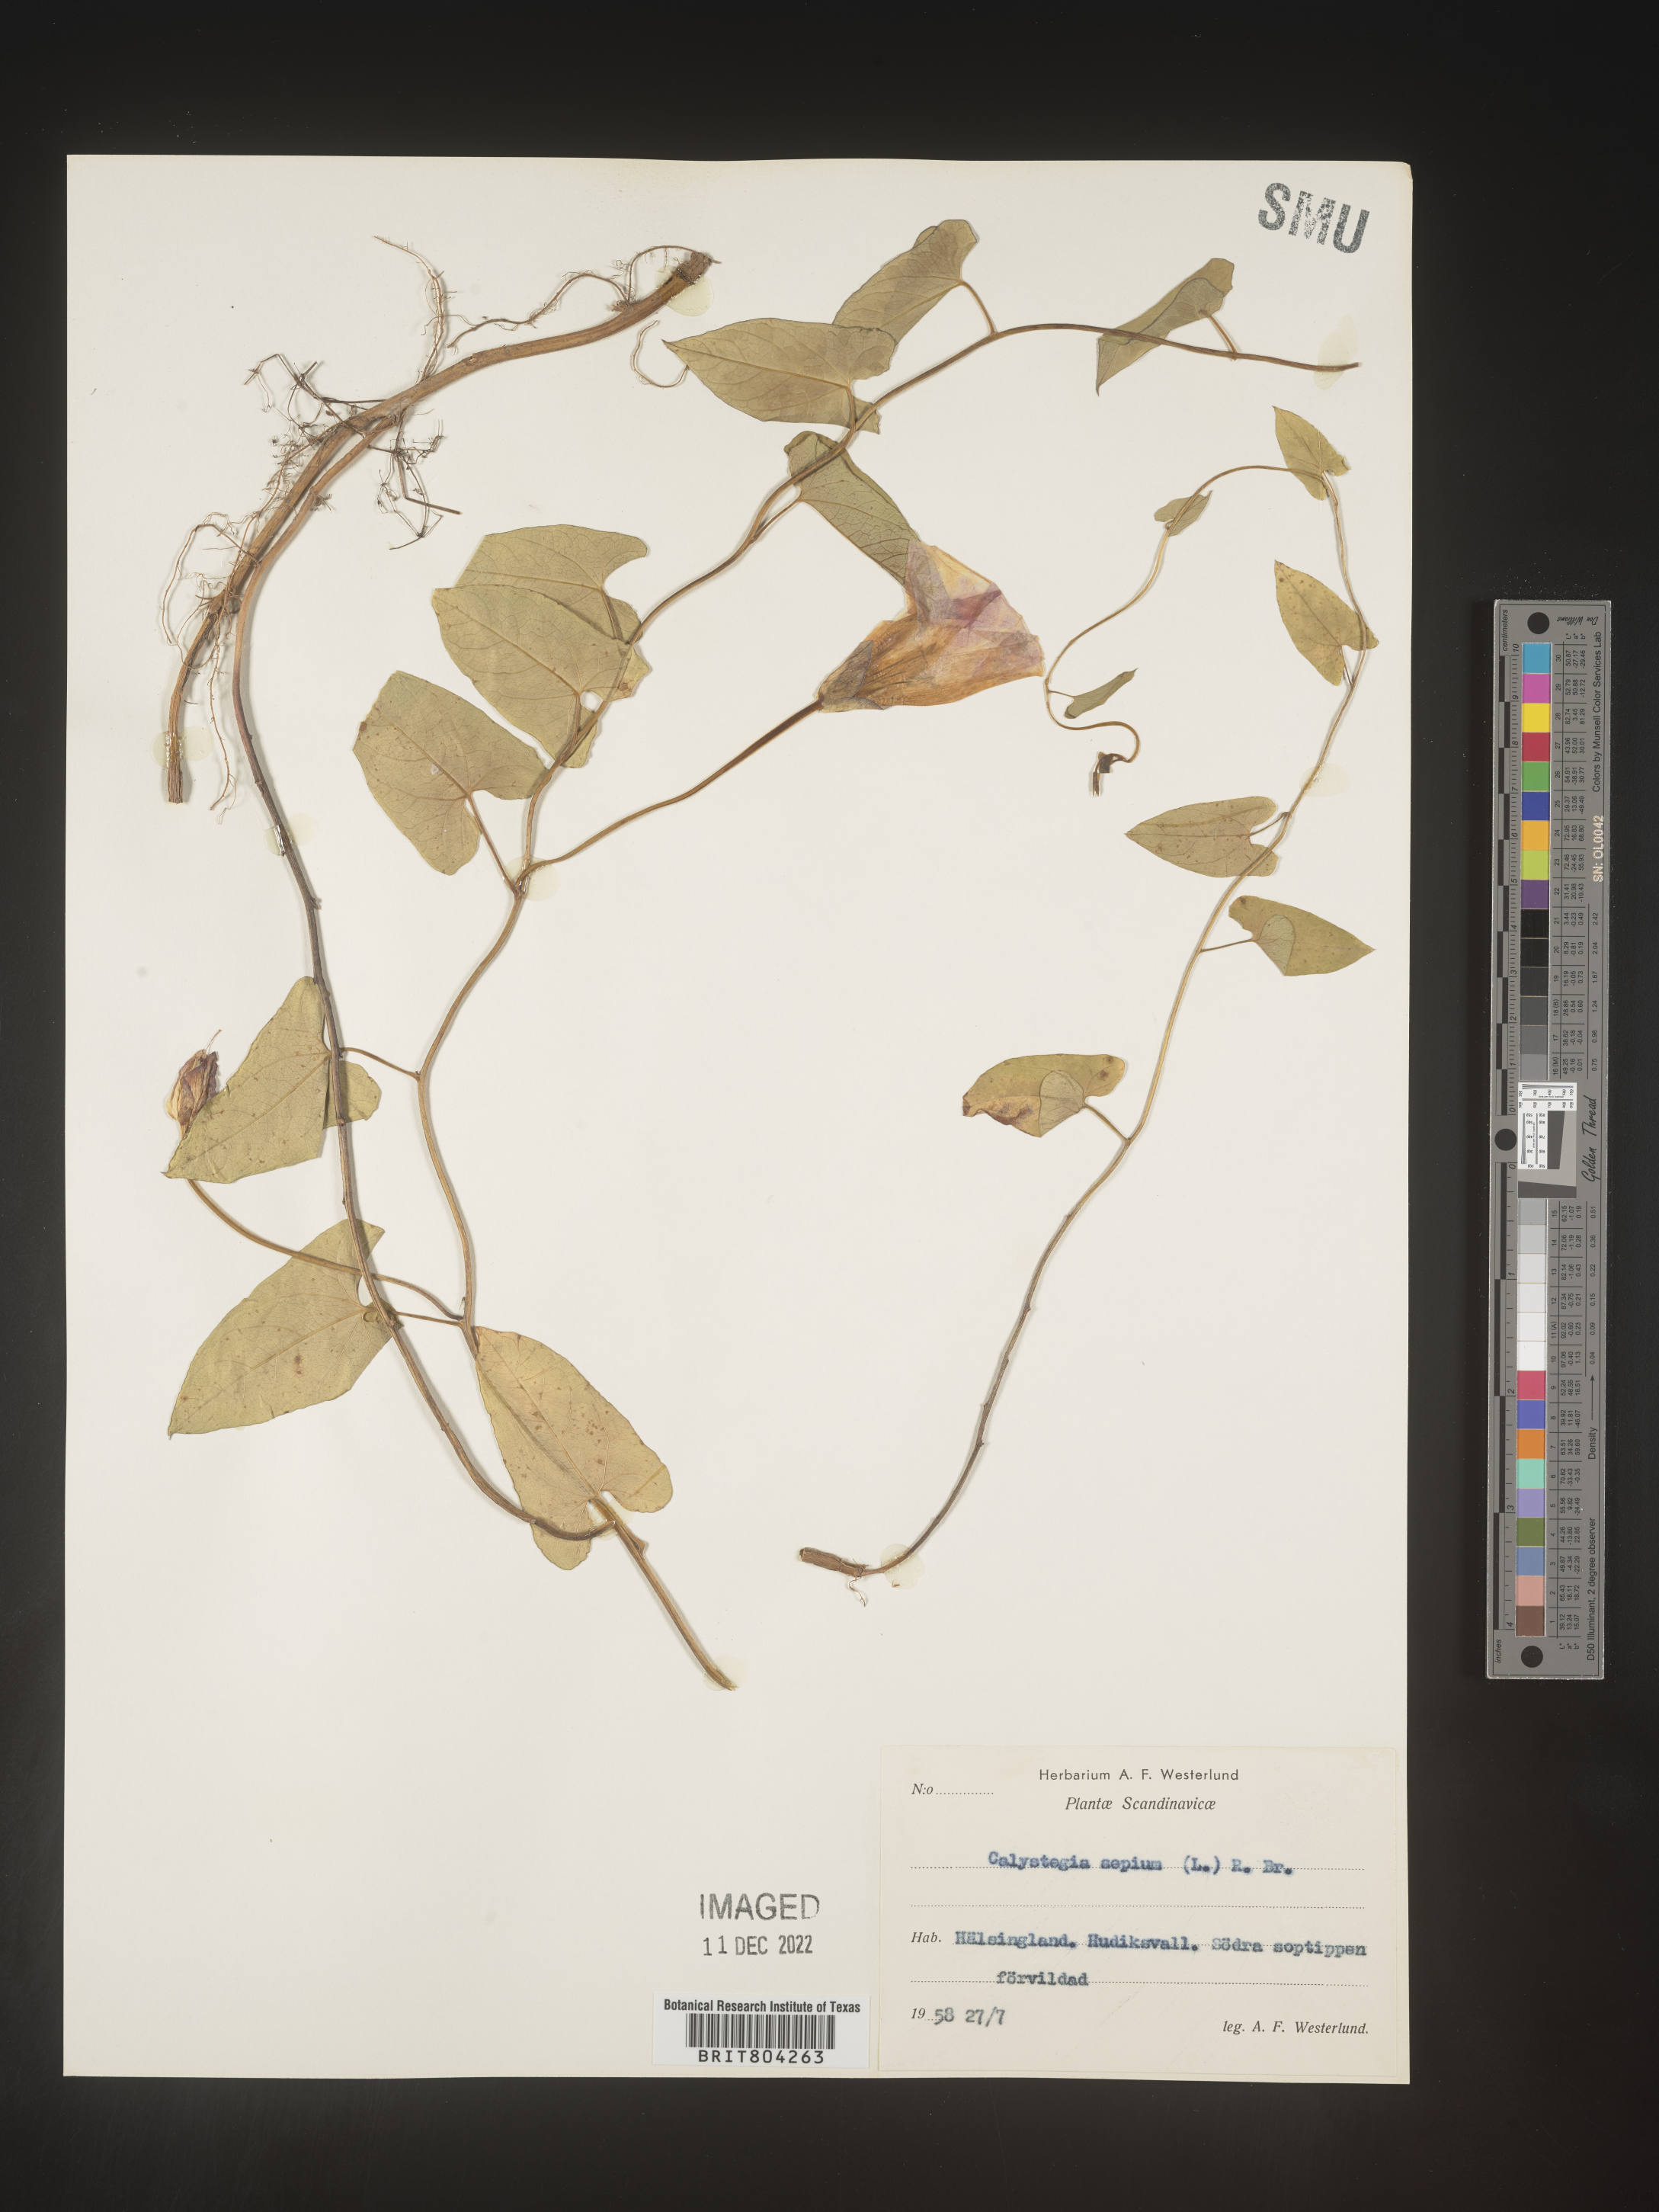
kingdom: Plantae
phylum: Tracheophyta
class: Magnoliopsida
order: Solanales
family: Convolvulaceae
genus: Calystegia
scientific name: Calystegia
